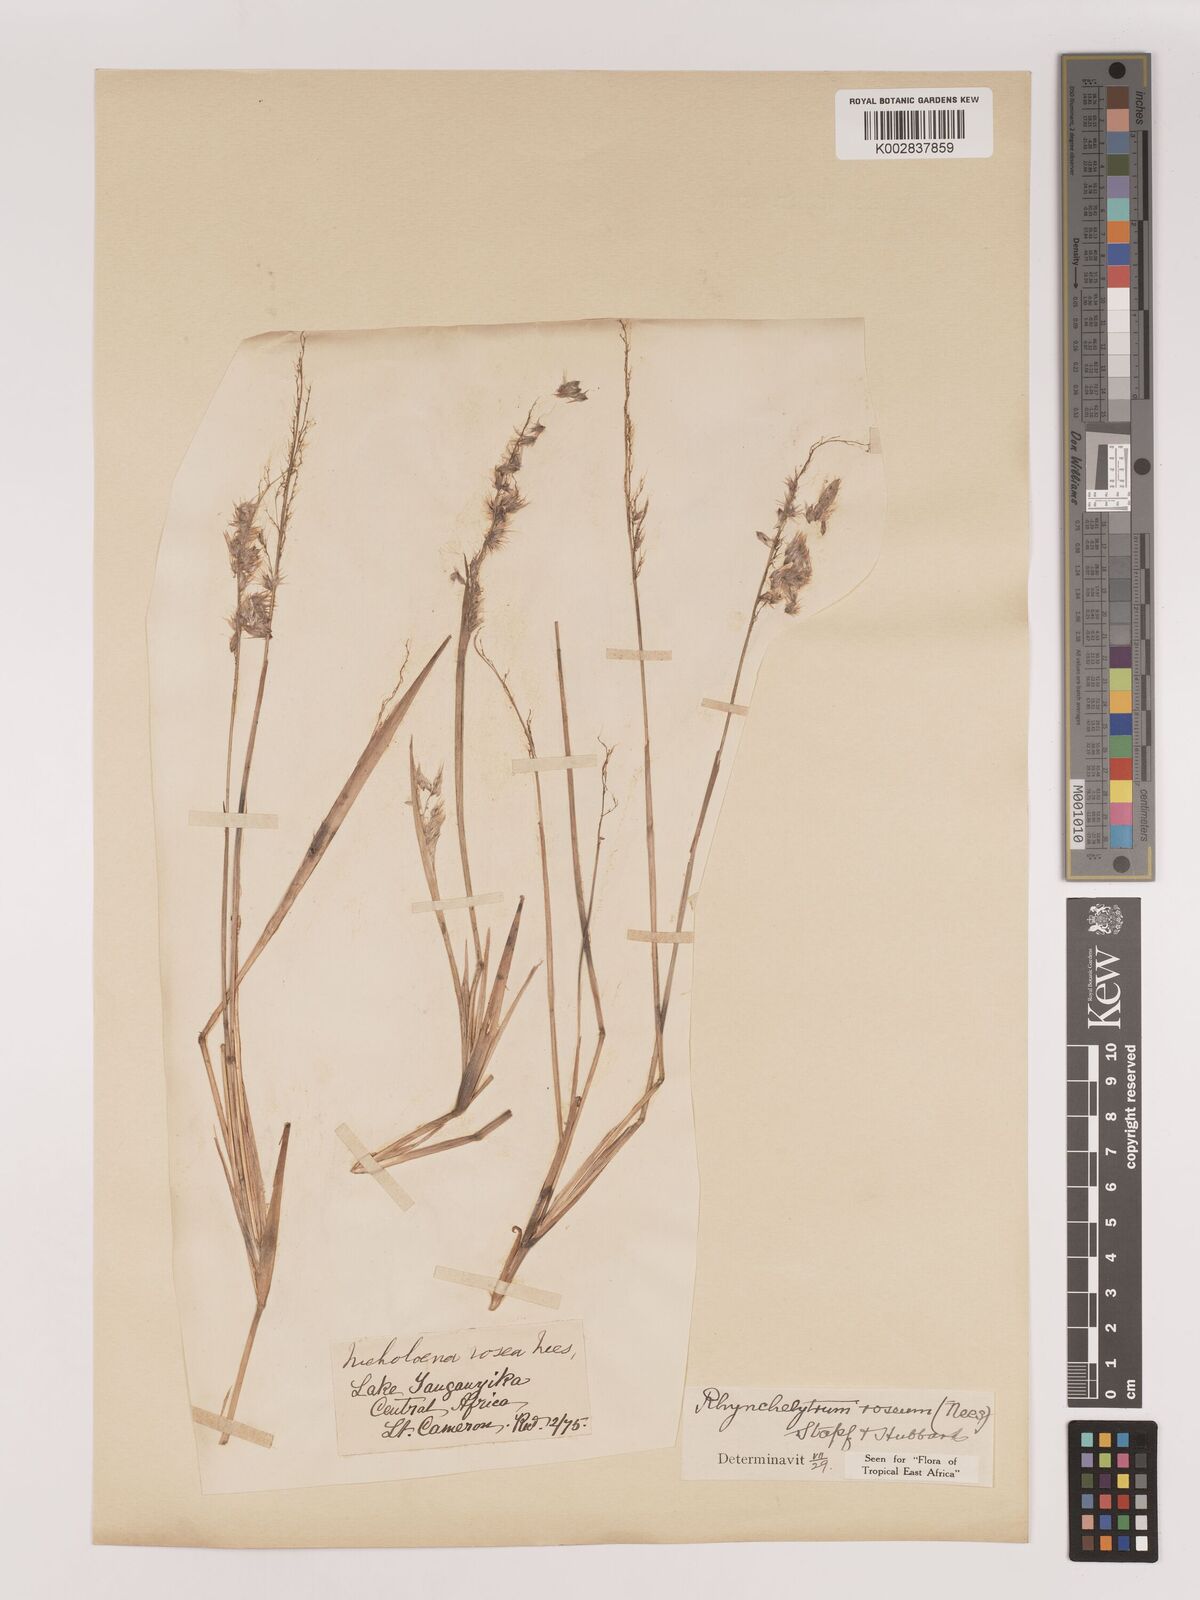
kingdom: Plantae
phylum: Tracheophyta
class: Liliopsida
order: Poales
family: Poaceae
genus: Melinis
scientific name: Melinis repens
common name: Rose natal grass
